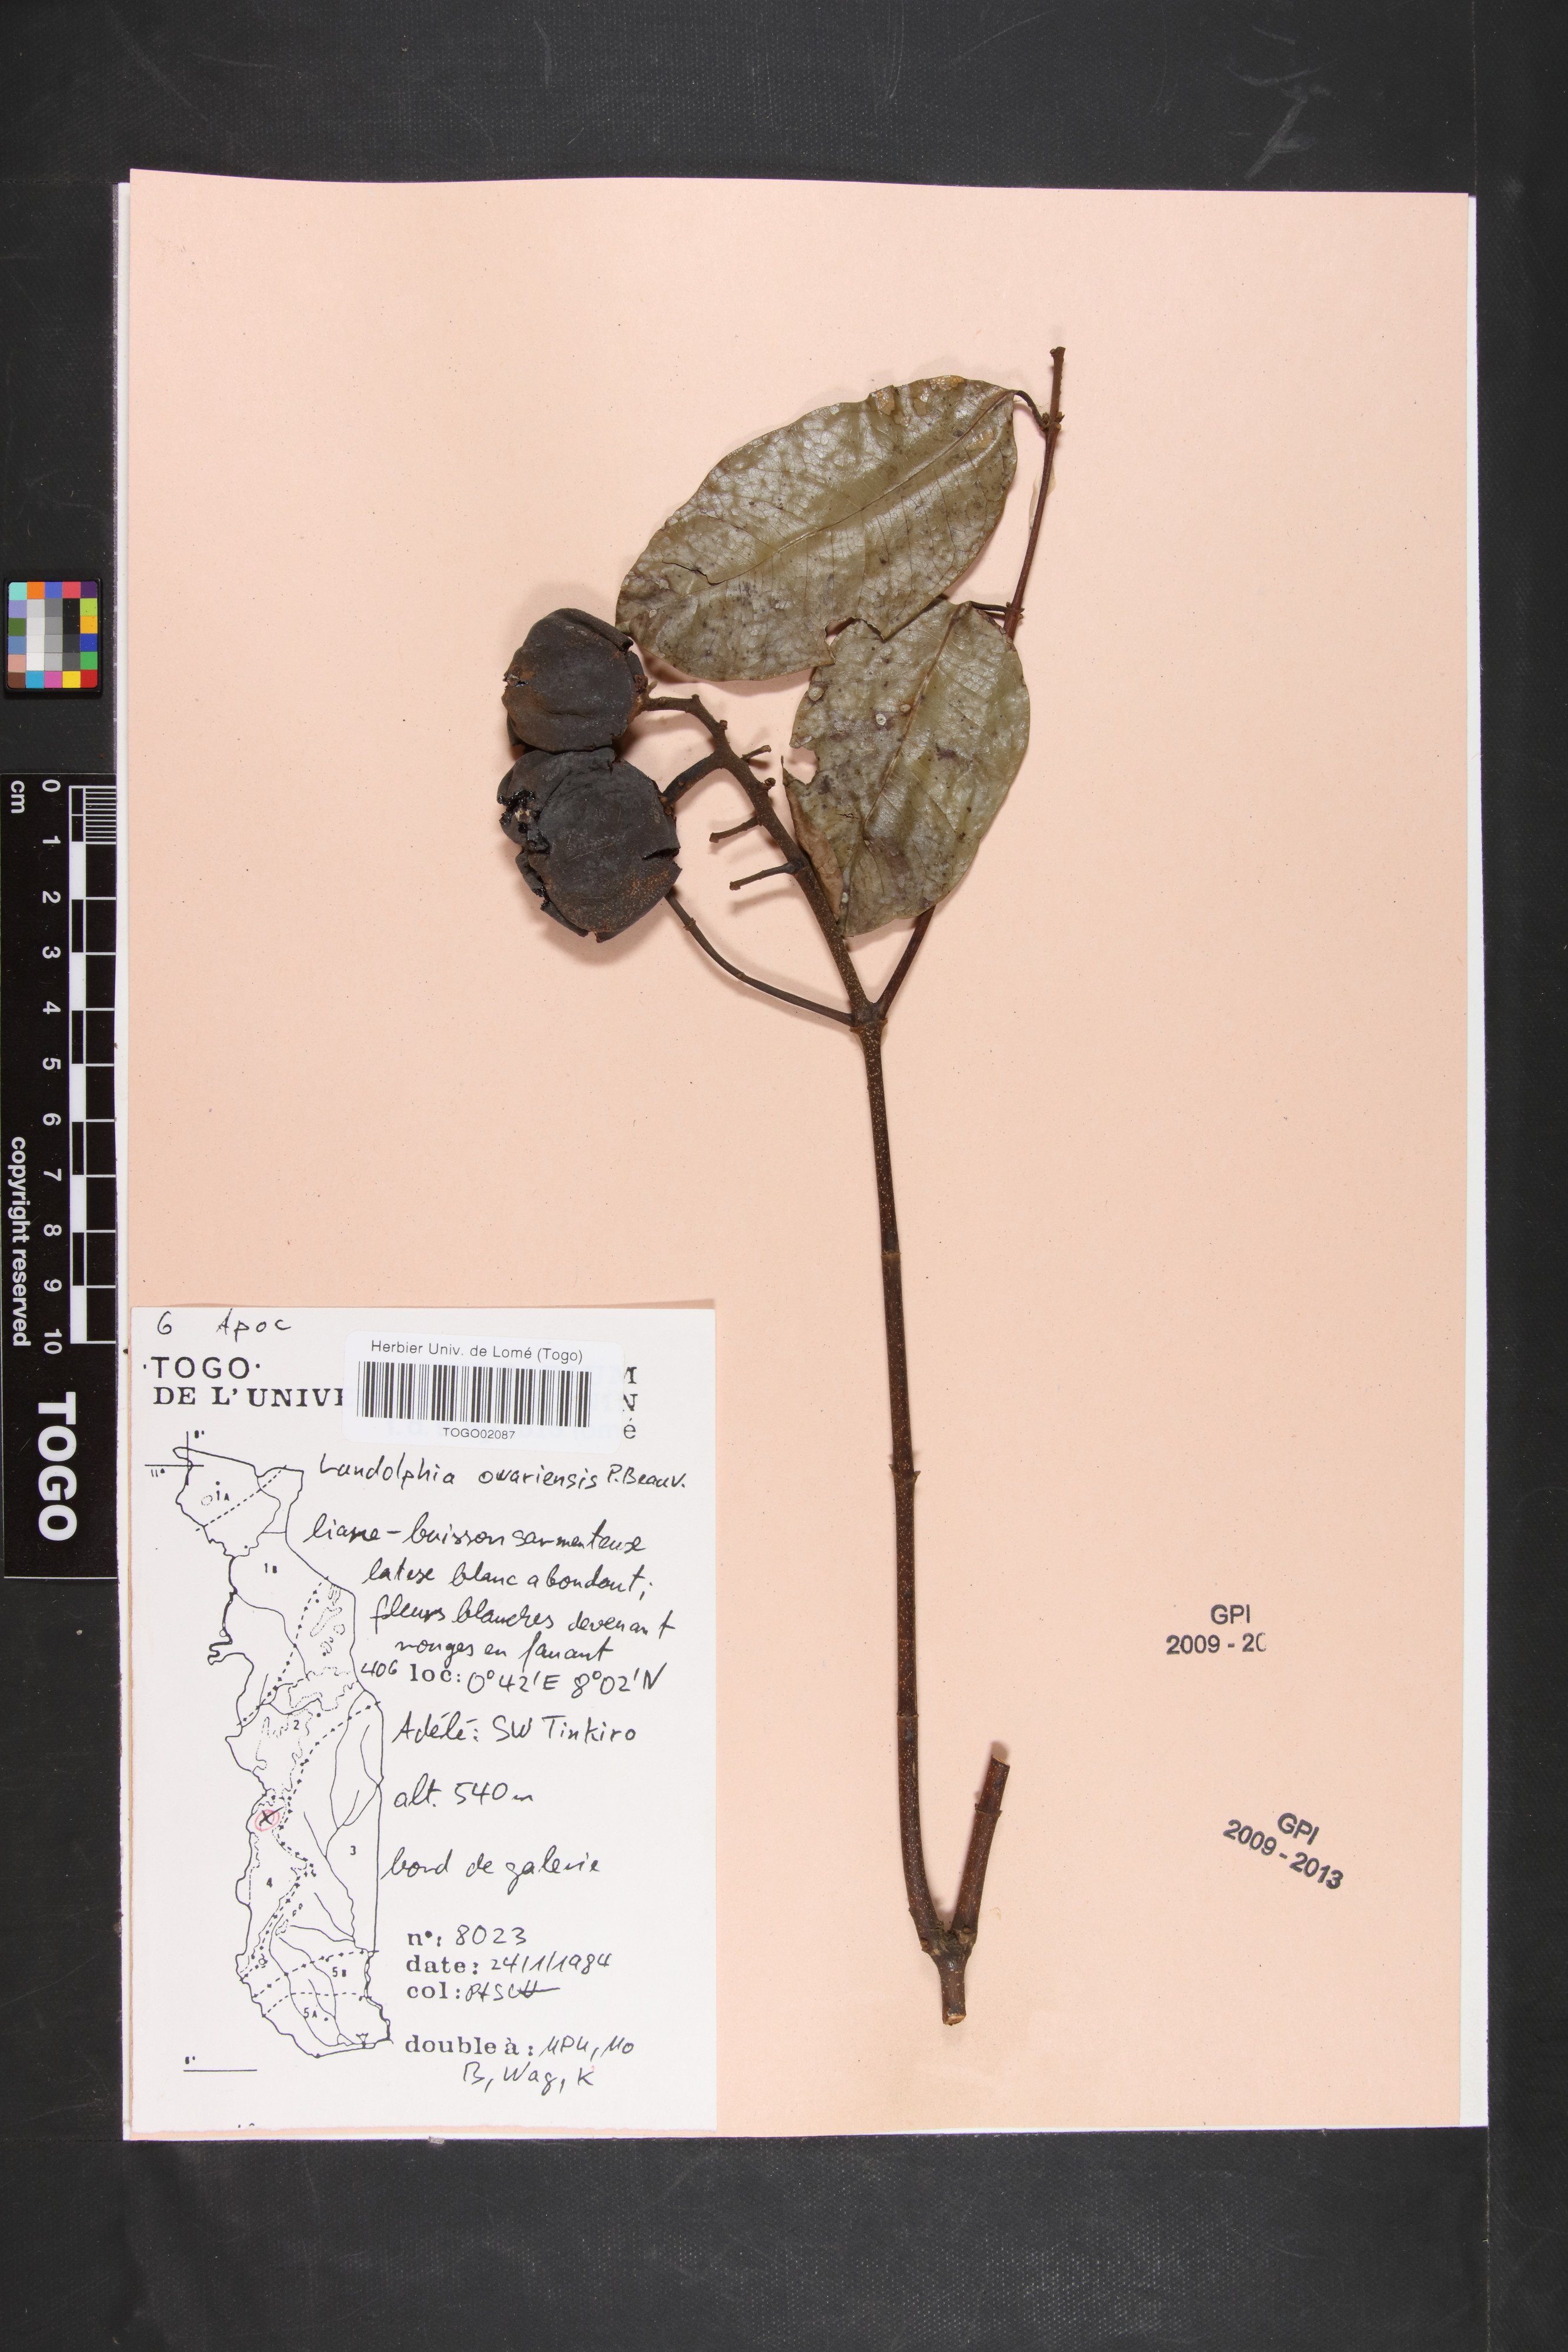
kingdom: Plantae
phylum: Tracheophyta
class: Magnoliopsida
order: Gentianales
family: Apocynaceae
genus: Landolphia
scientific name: Landolphia owariensis
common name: White-ball-rubber
